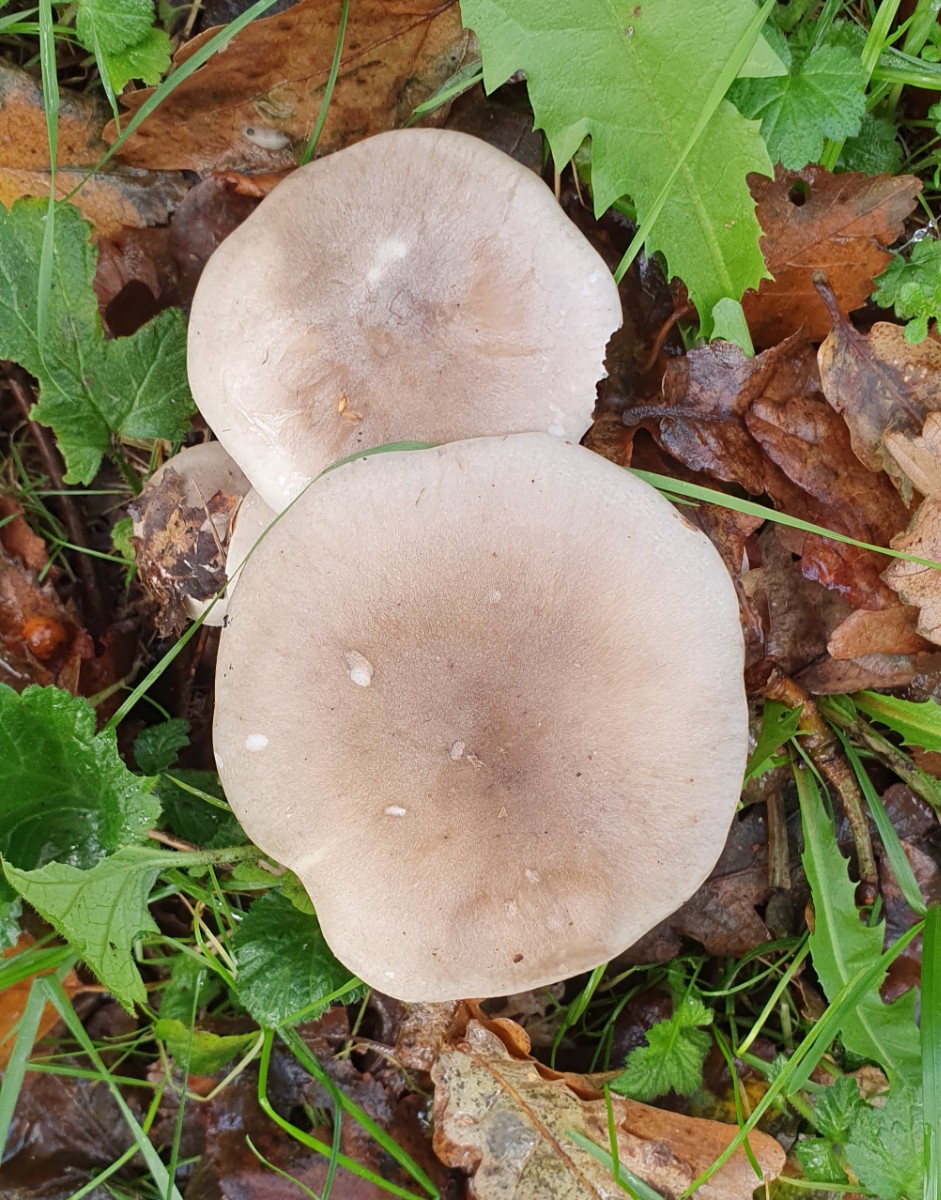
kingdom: Fungi
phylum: Basidiomycota
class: Agaricomycetes
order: Agaricales
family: Tricholomataceae
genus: Clitocybe
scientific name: Clitocybe nebularis
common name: tåge-tragthat
